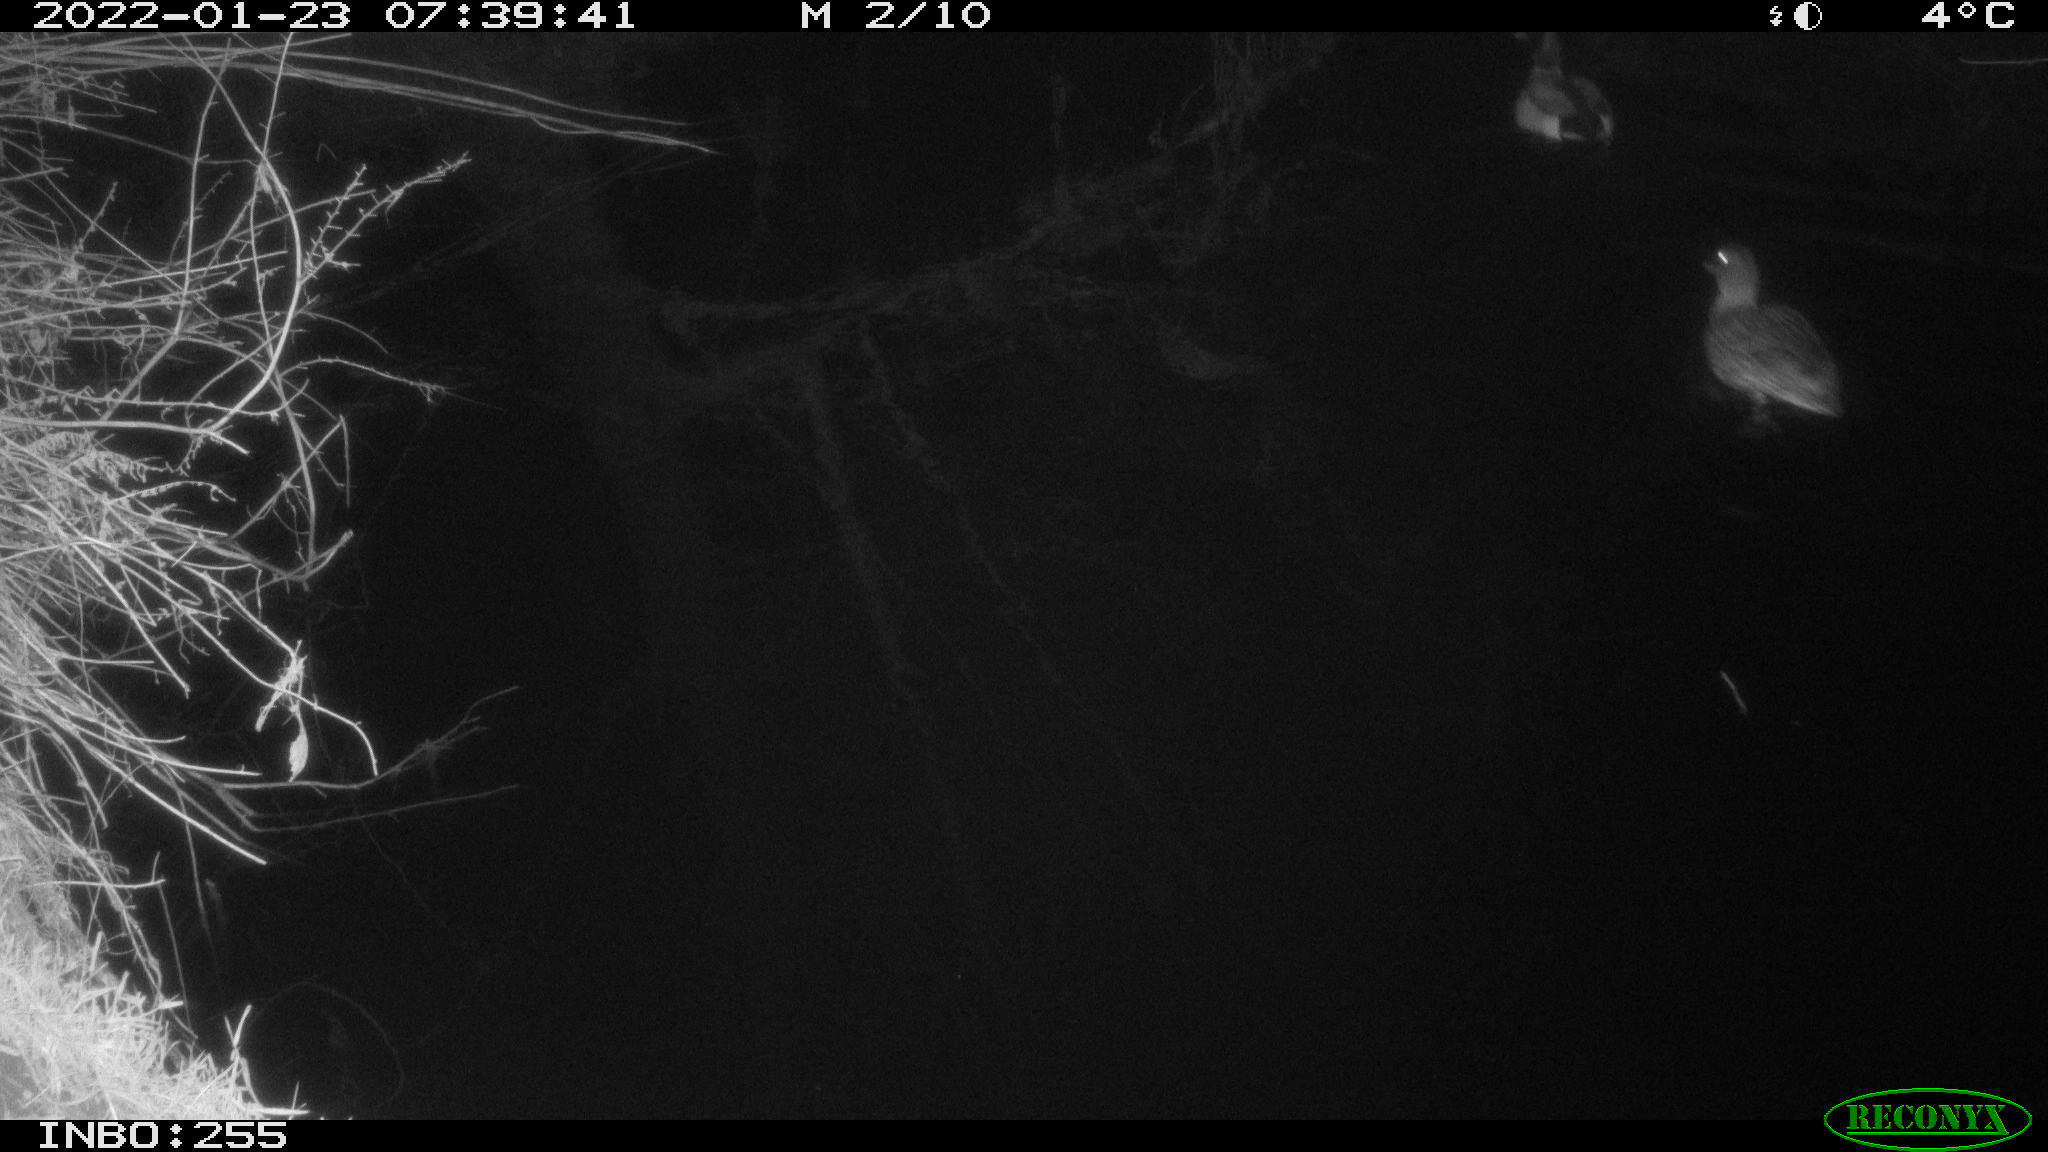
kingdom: Animalia
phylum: Chordata
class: Aves
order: Anseriformes
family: Anatidae
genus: Anas
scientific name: Anas
